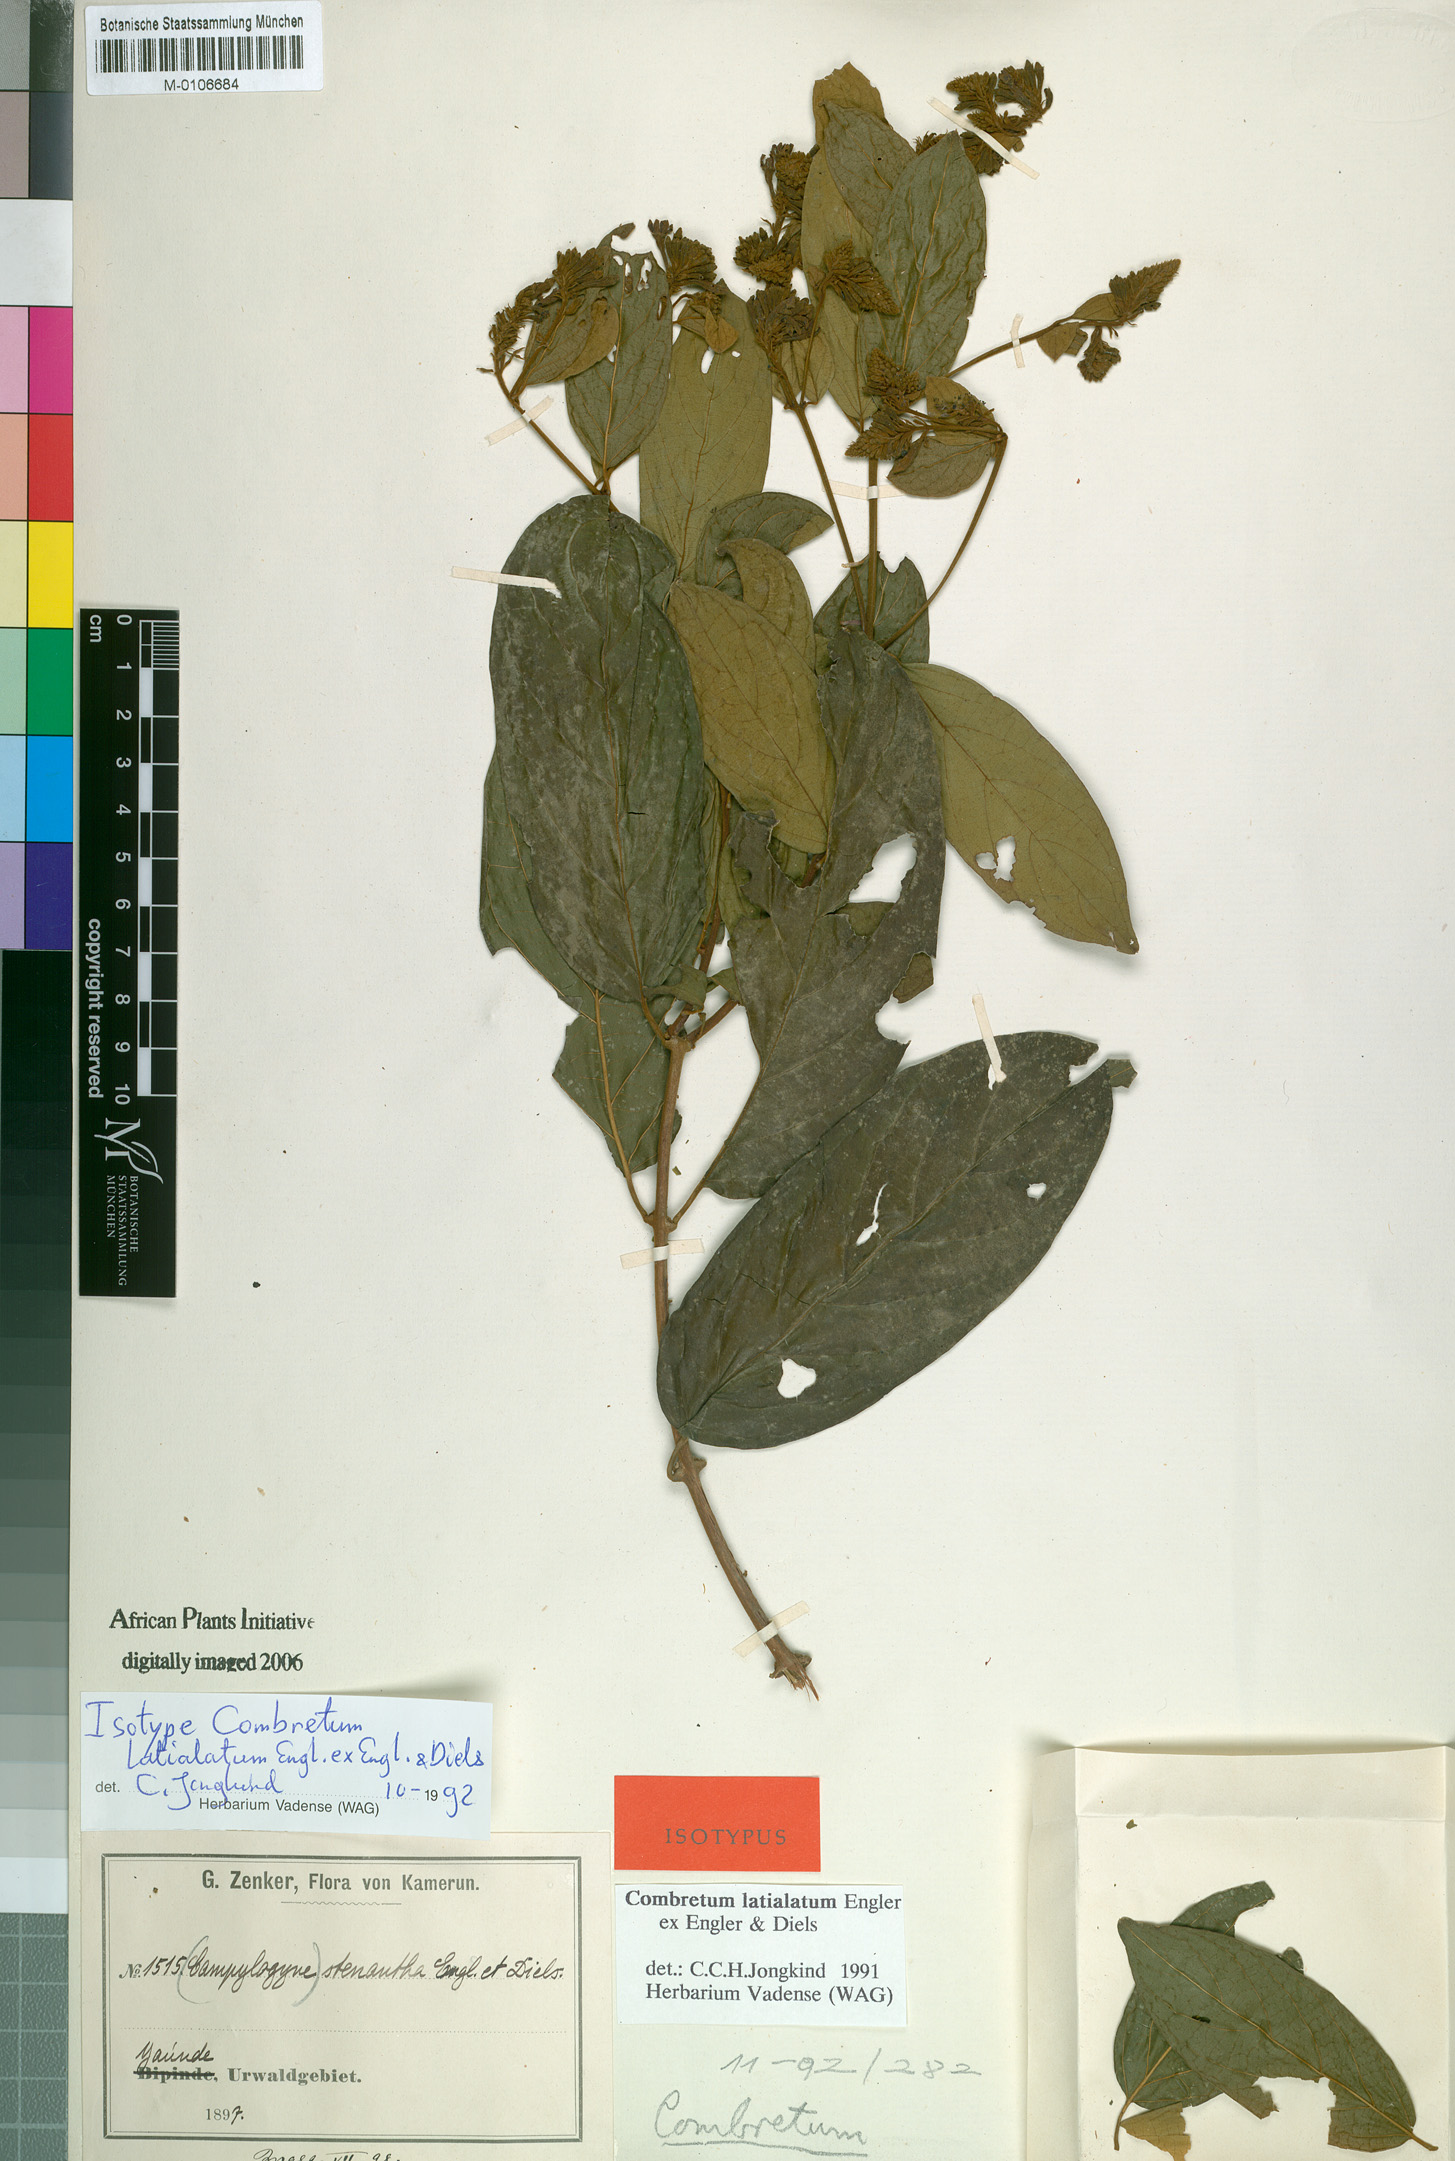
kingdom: Plantae
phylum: Tracheophyta
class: Magnoliopsida
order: Myrtales
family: Combretaceae
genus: Combretum
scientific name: Combretum latialatum
